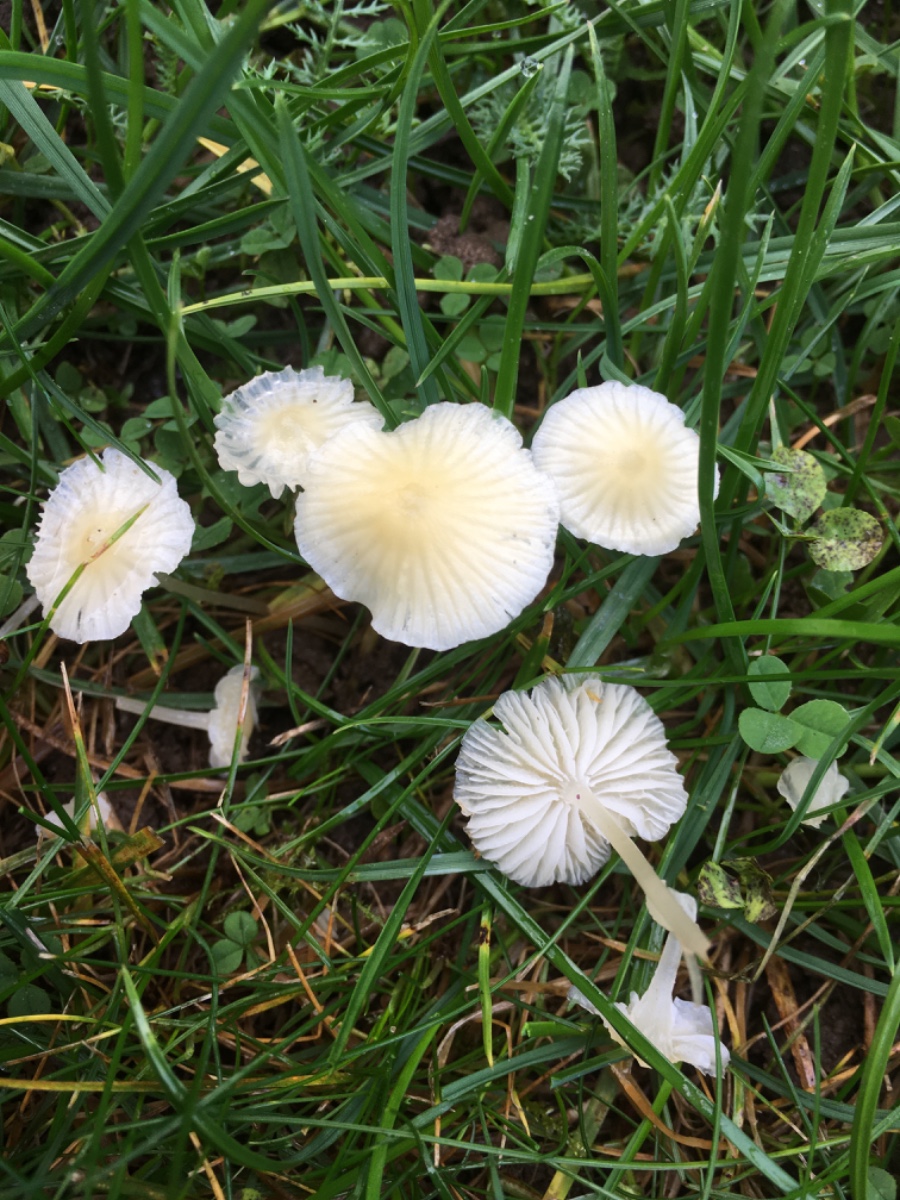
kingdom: Fungi
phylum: Basidiomycota
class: Agaricomycetes
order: Agaricales
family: Mycenaceae
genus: Atheniella
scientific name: Atheniella flavoalba
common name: gulhvid huesvamp
